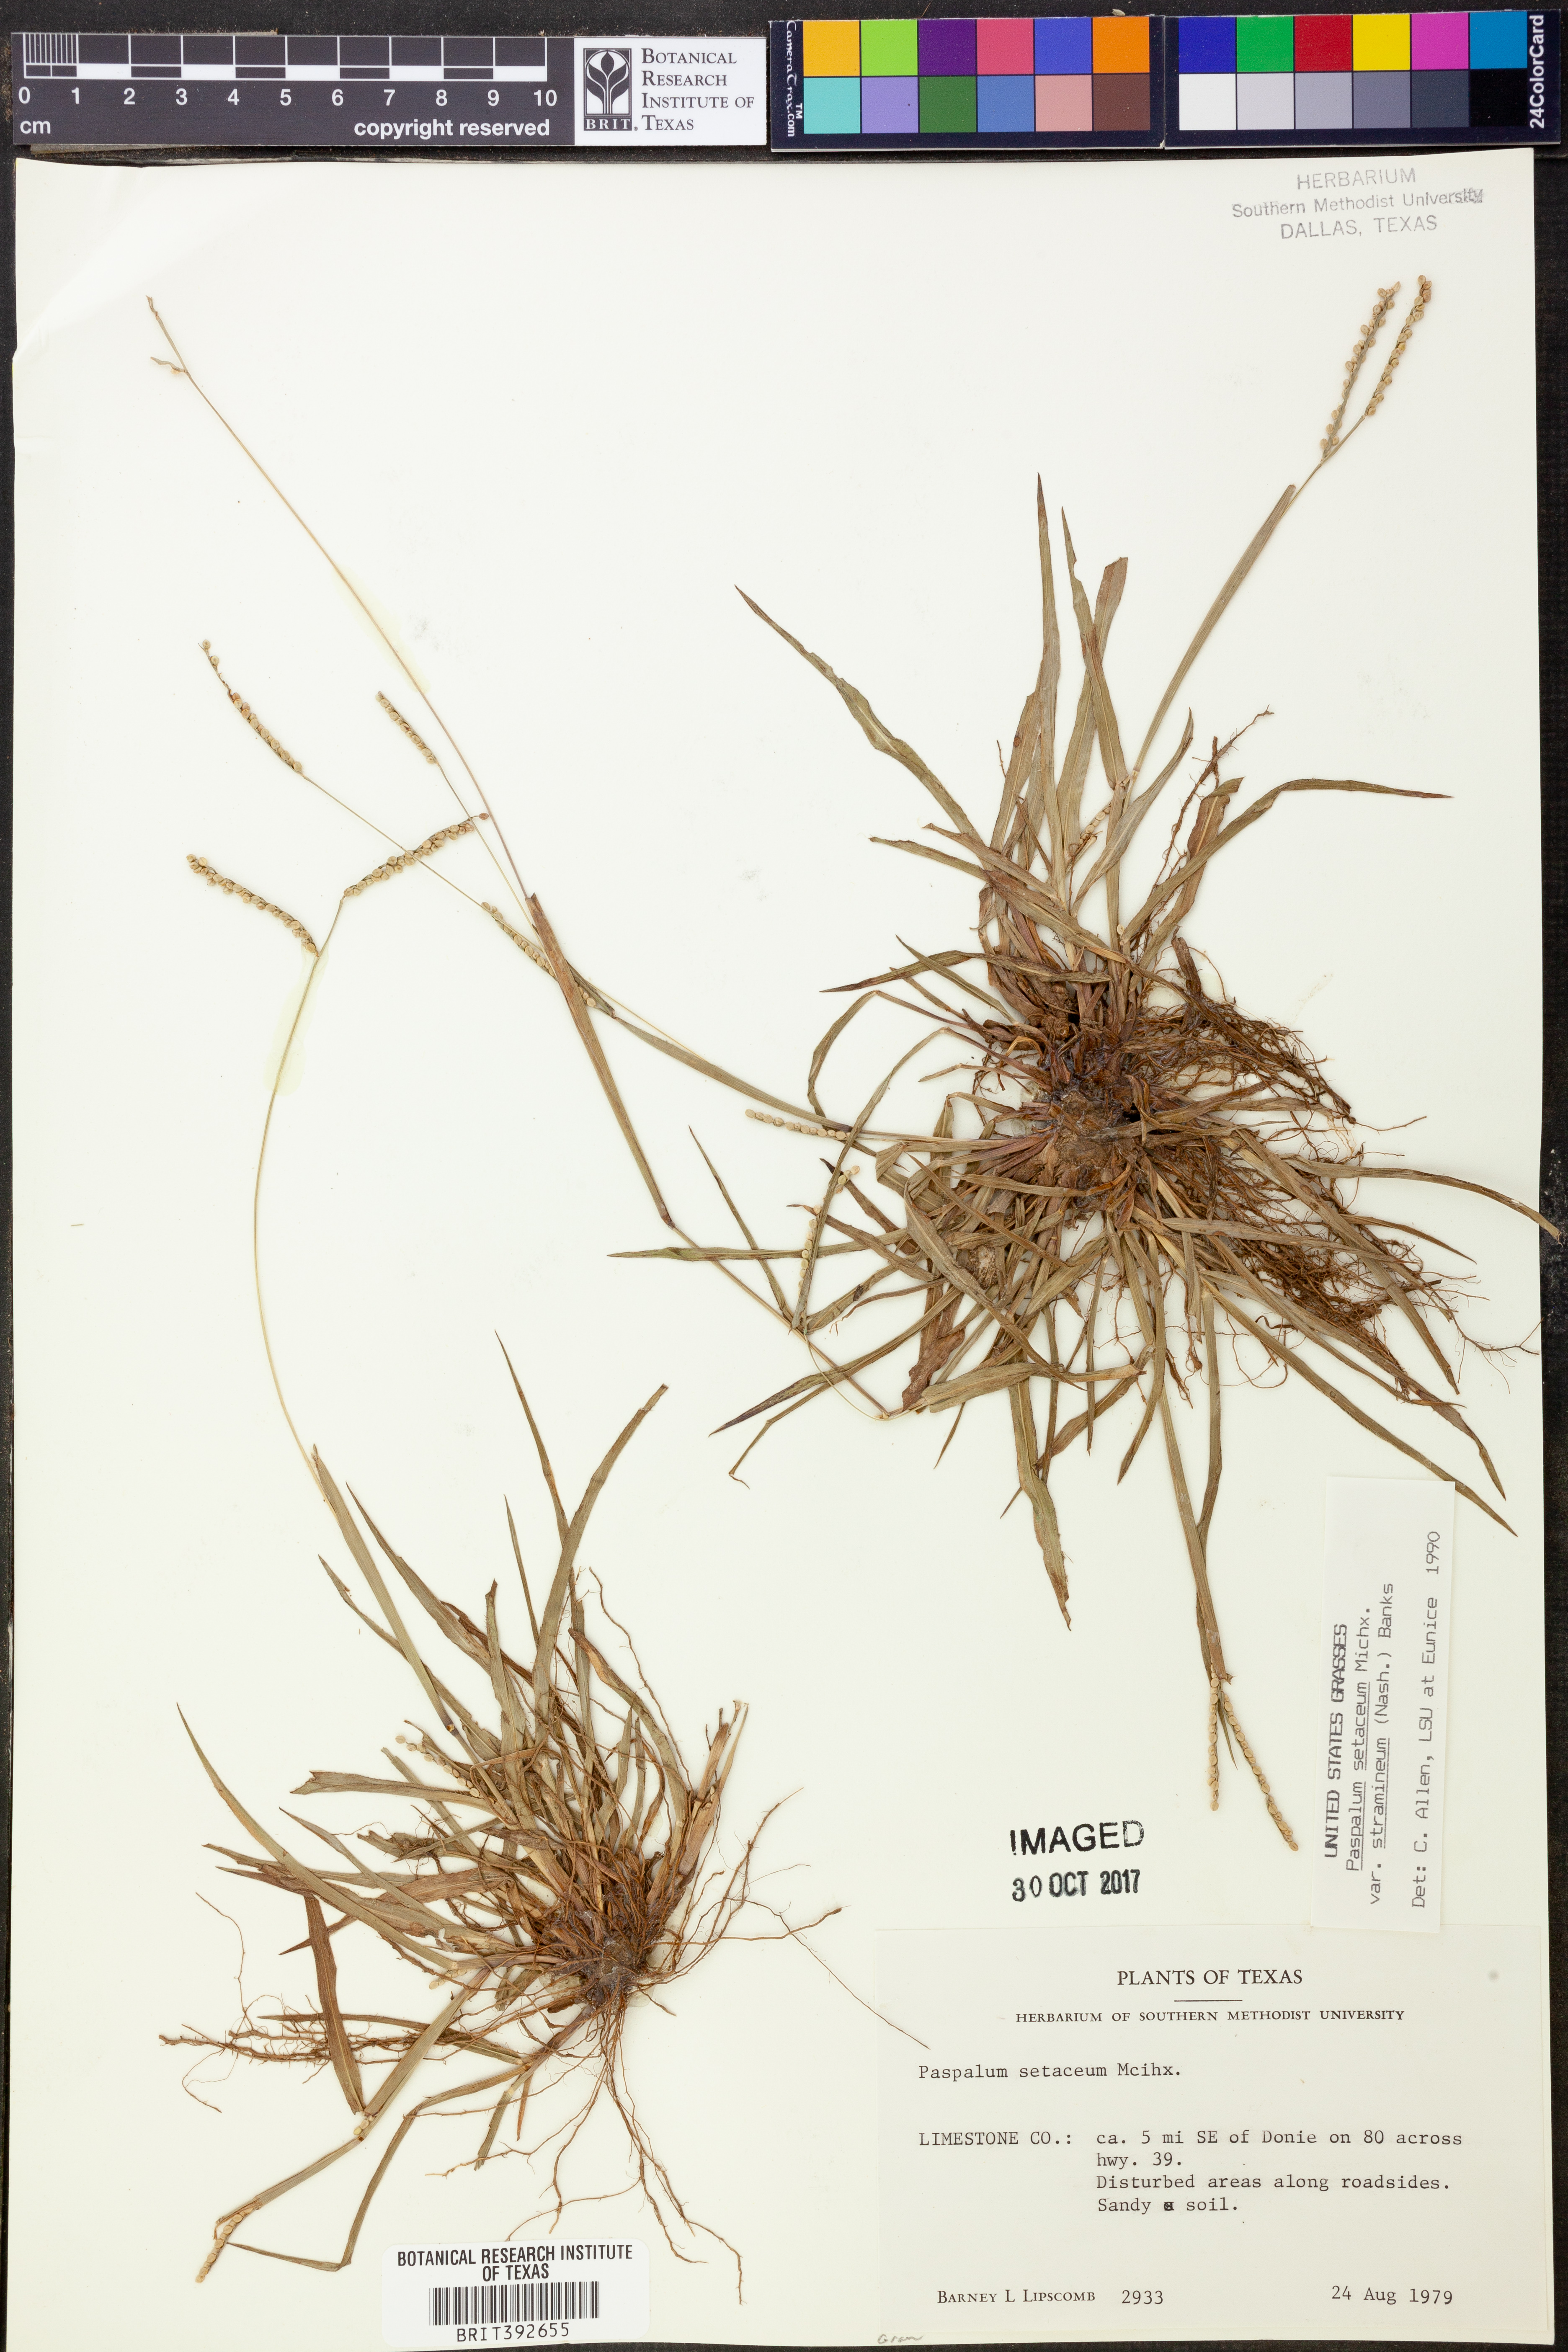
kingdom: Plantae
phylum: Tracheophyta
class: Liliopsida
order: Poales
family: Poaceae
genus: Paspalum
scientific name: Paspalum setaceum
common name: Slender paspalum
